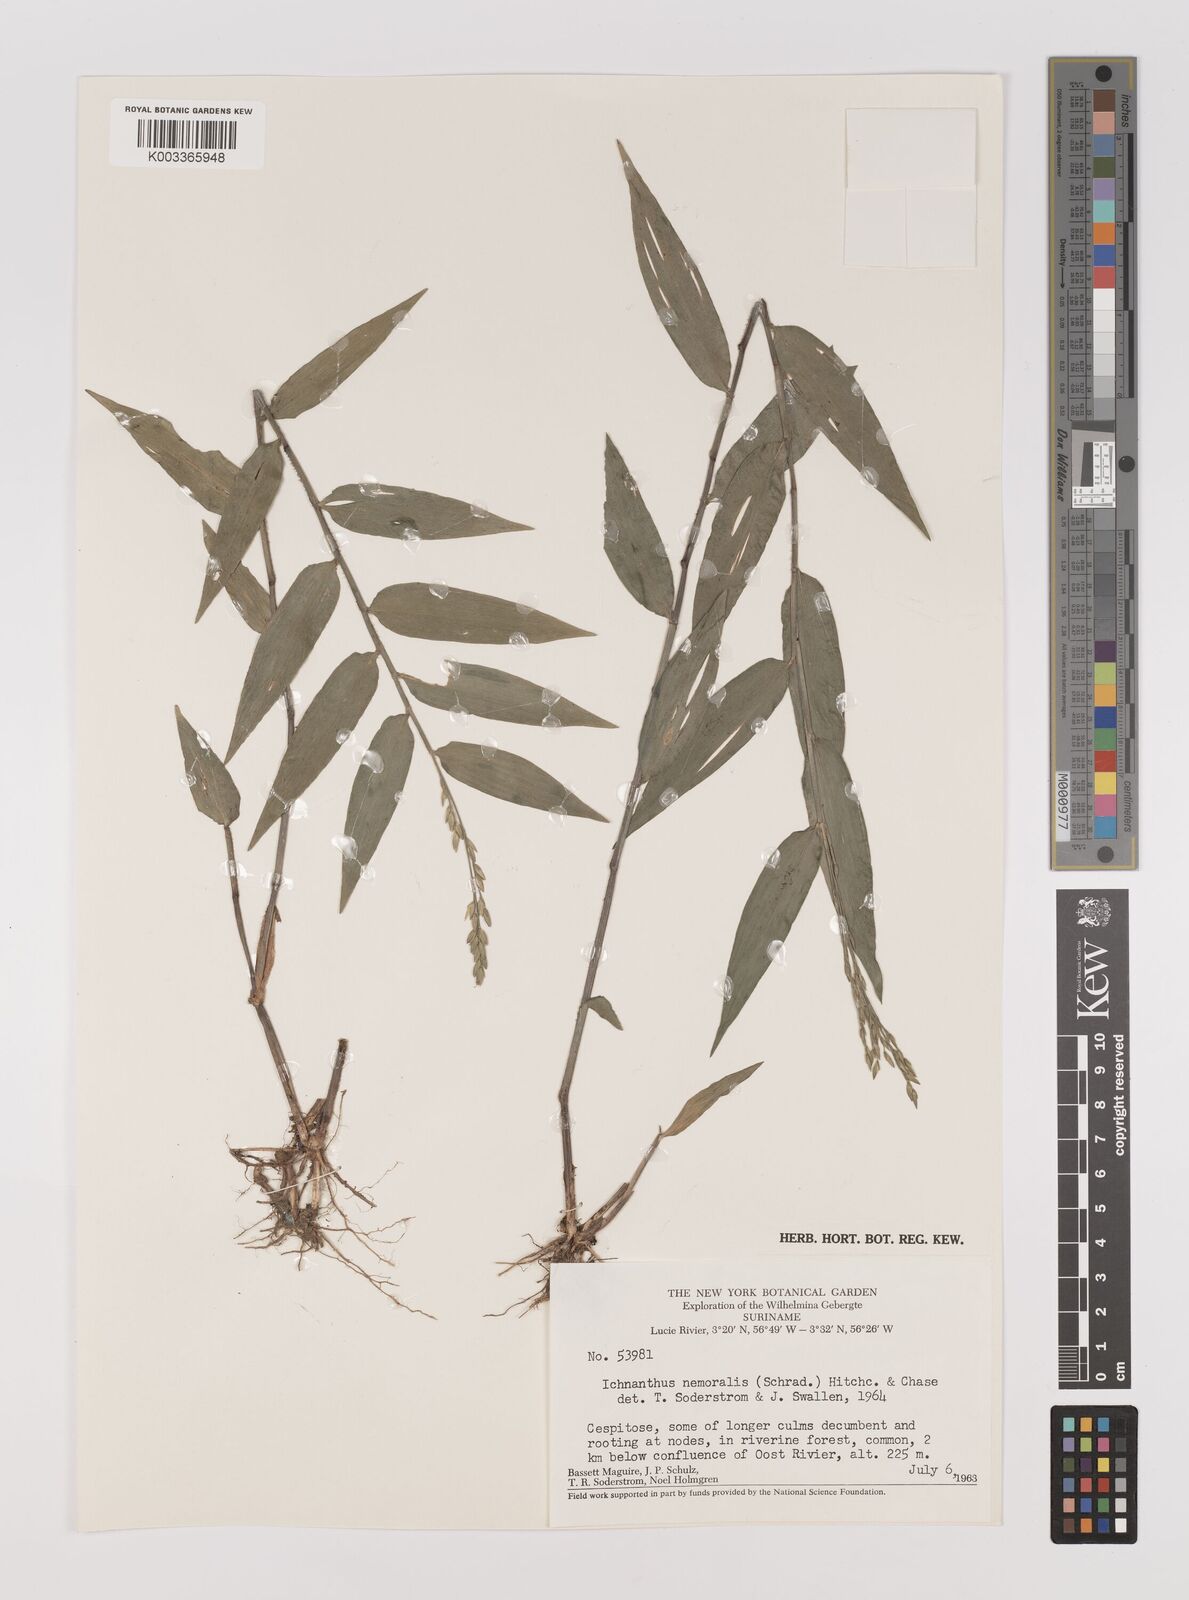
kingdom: Plantae
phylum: Tracheophyta
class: Liliopsida
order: Poales
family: Poaceae
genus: Ichnanthus
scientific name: Ichnanthus nemoralis
